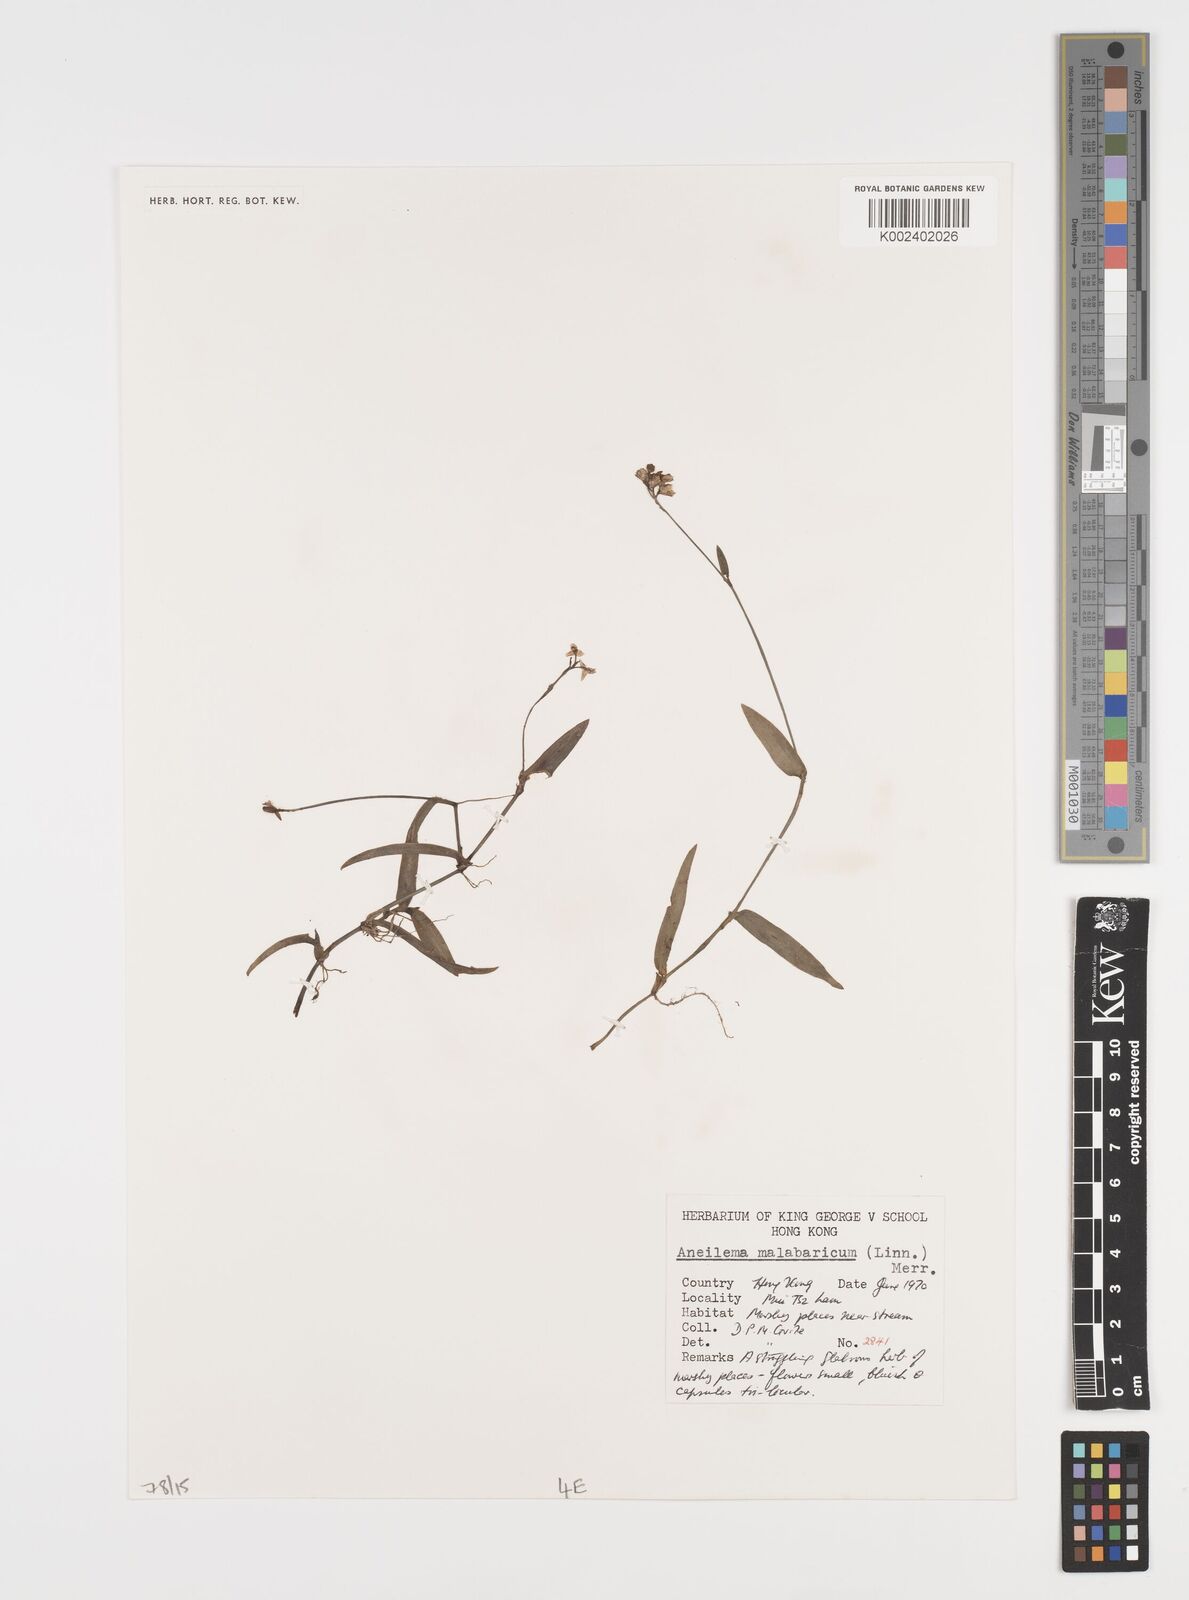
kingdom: Plantae
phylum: Tracheophyta
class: Liliopsida
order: Commelinales
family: Commelinaceae
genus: Murdannia
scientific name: Murdannia nudiflora
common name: Nakedstem dewflower
